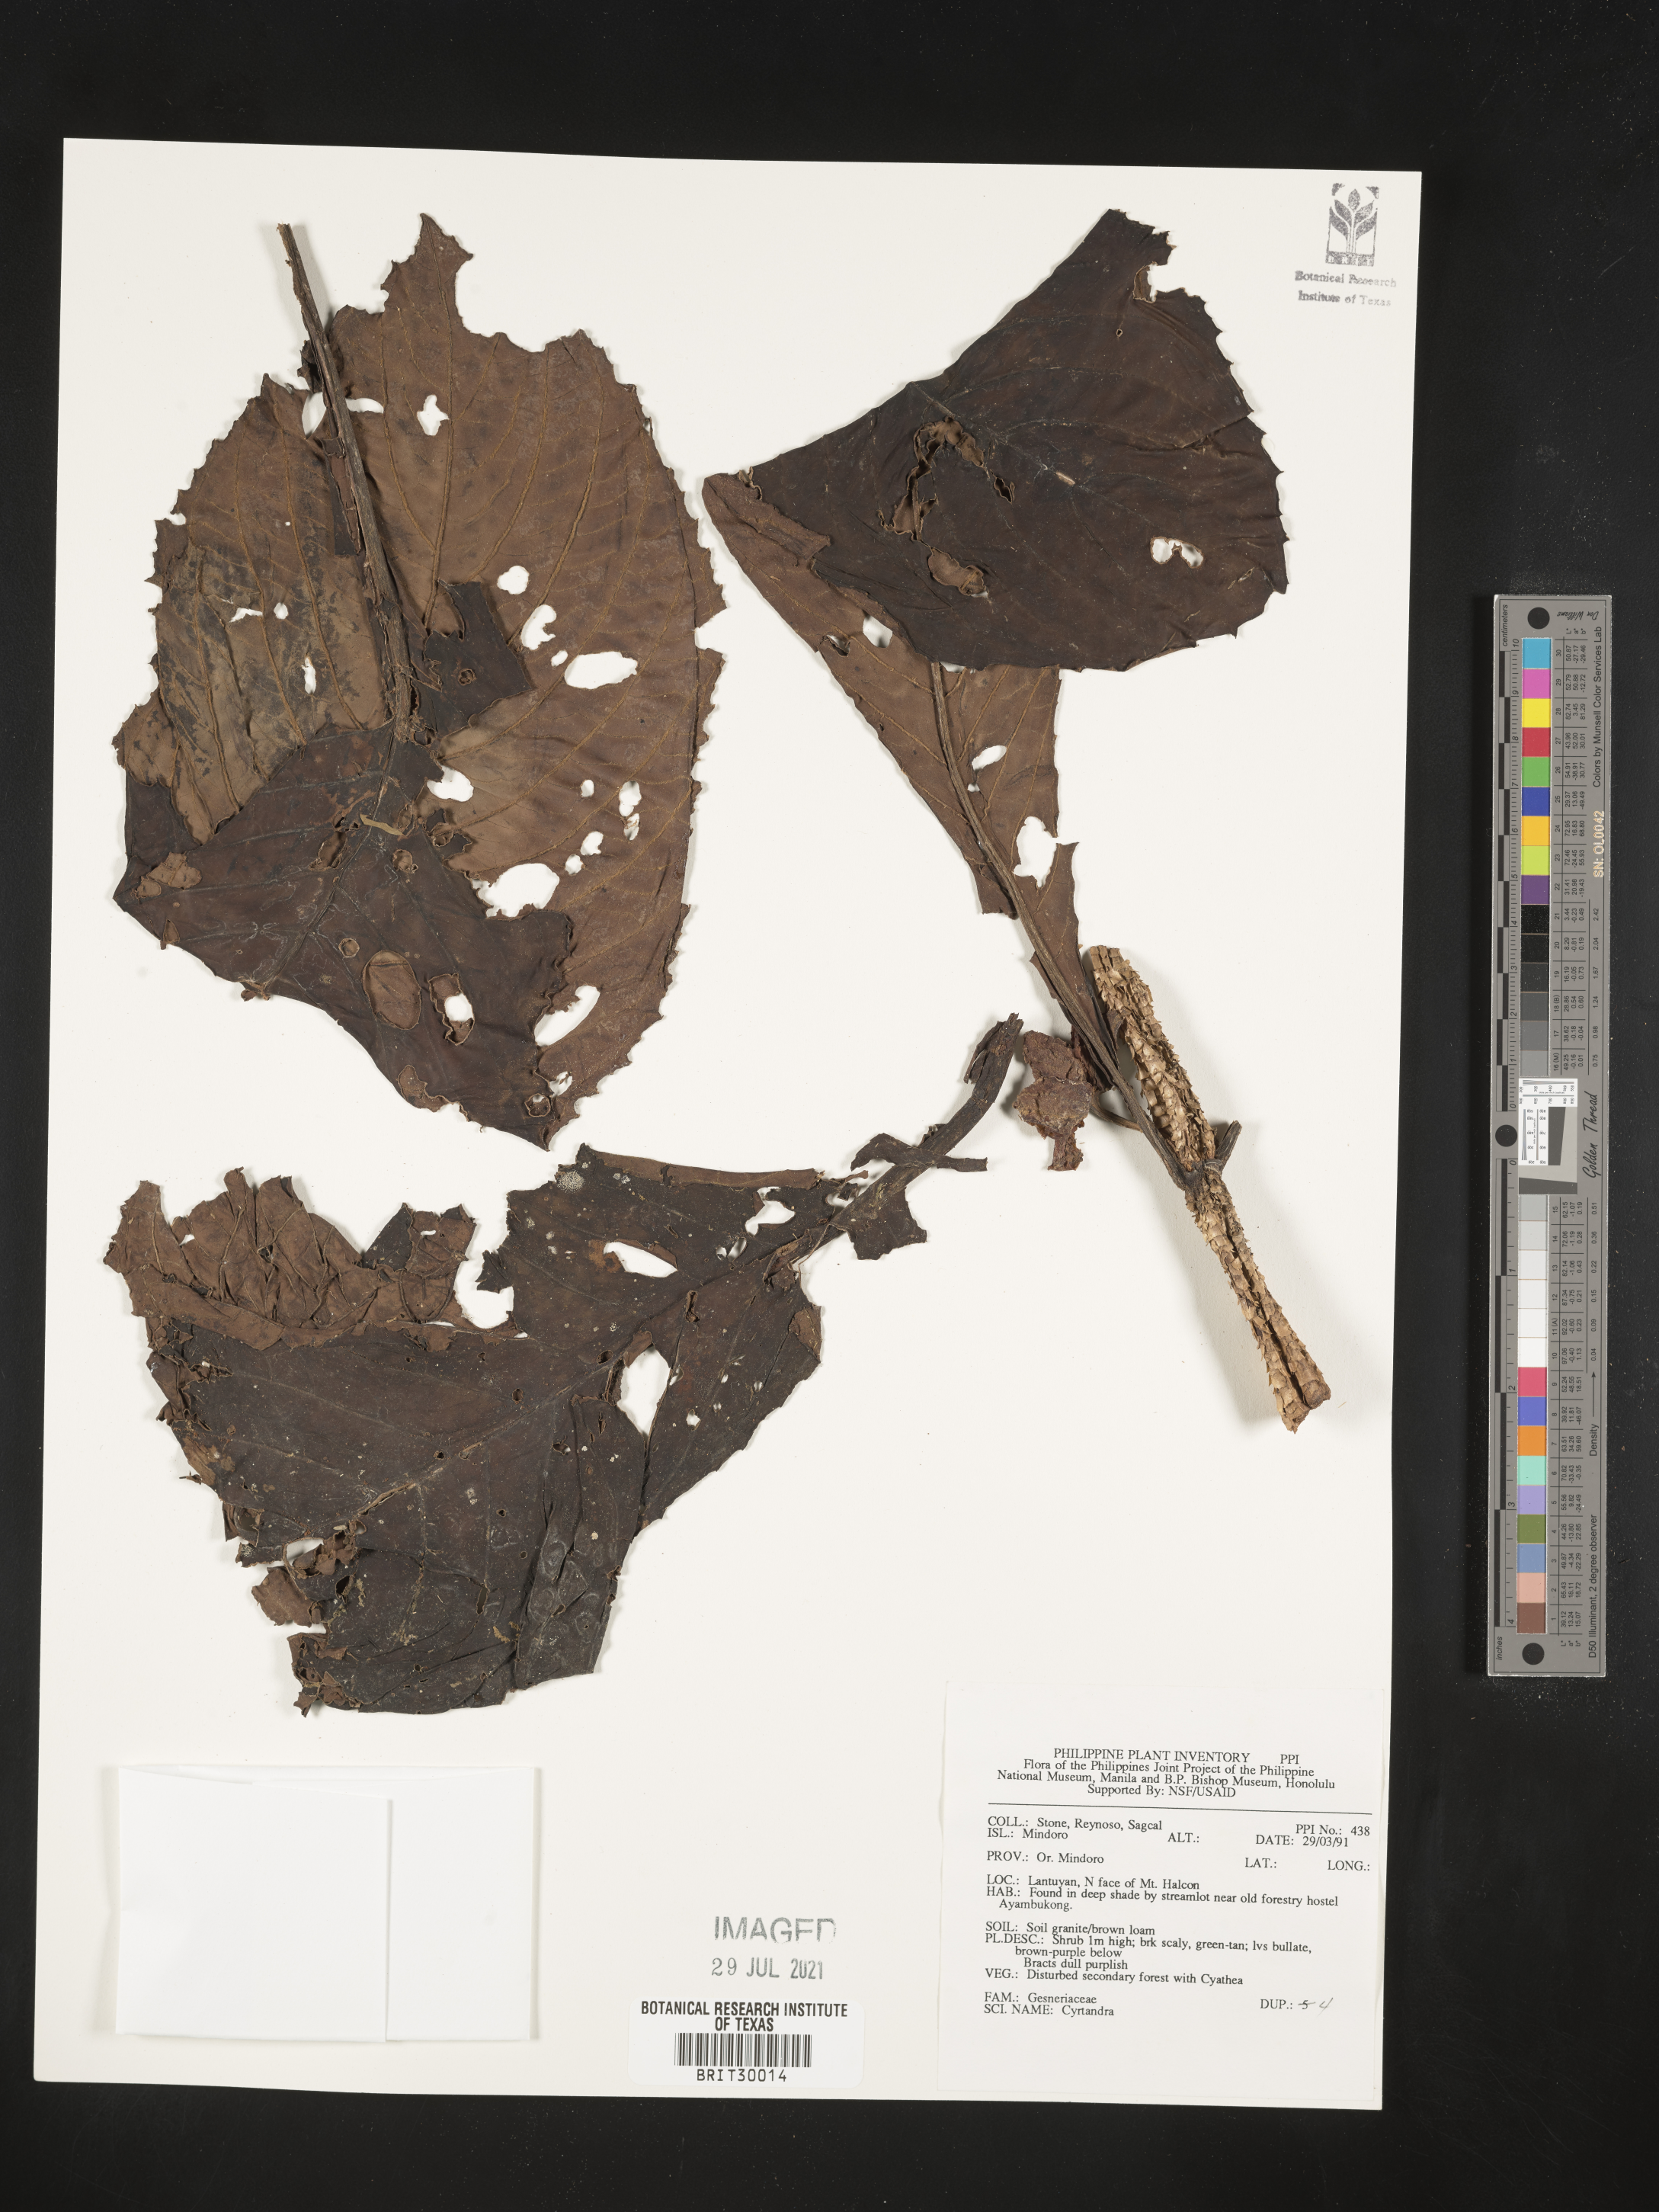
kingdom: Plantae
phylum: Tracheophyta
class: Magnoliopsida
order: Lamiales
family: Gesneriaceae
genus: Cyrtandra
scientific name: Cyrtandra
